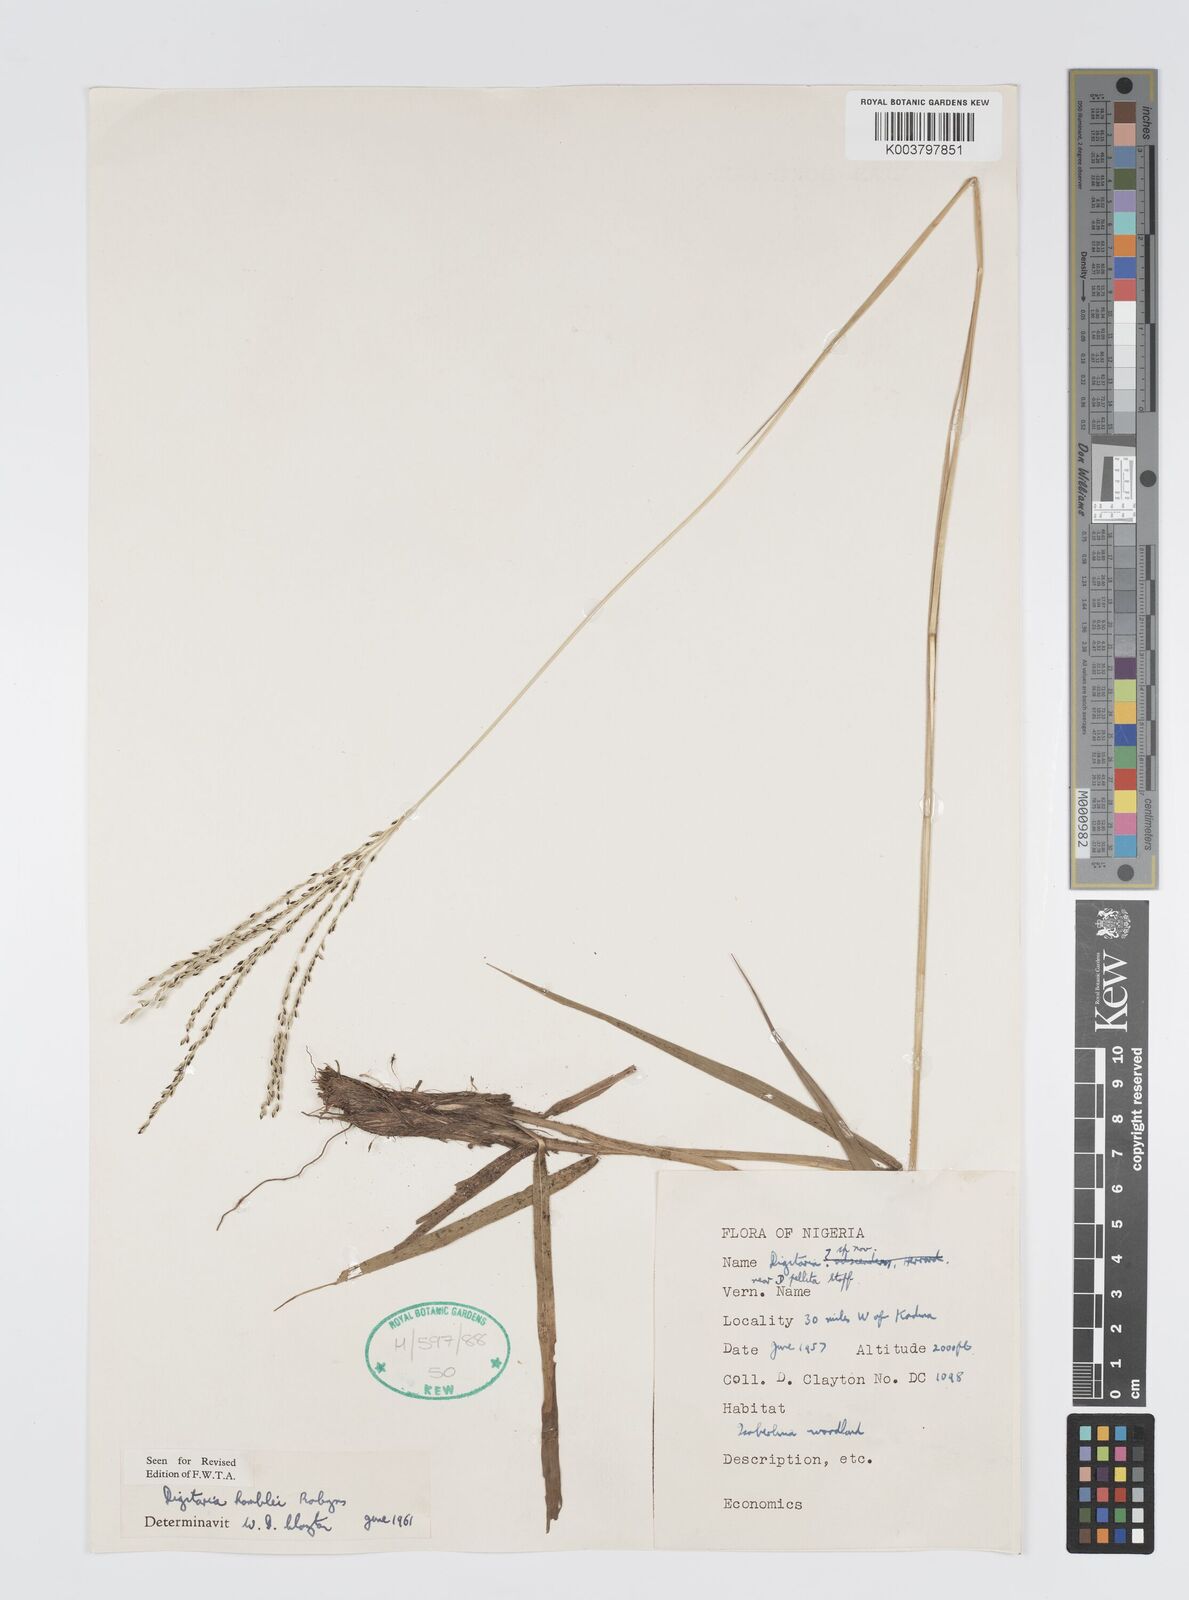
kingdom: Plantae
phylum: Tracheophyta
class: Liliopsida
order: Poales
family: Poaceae
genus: Digitaria
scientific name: Digitaria compressa
